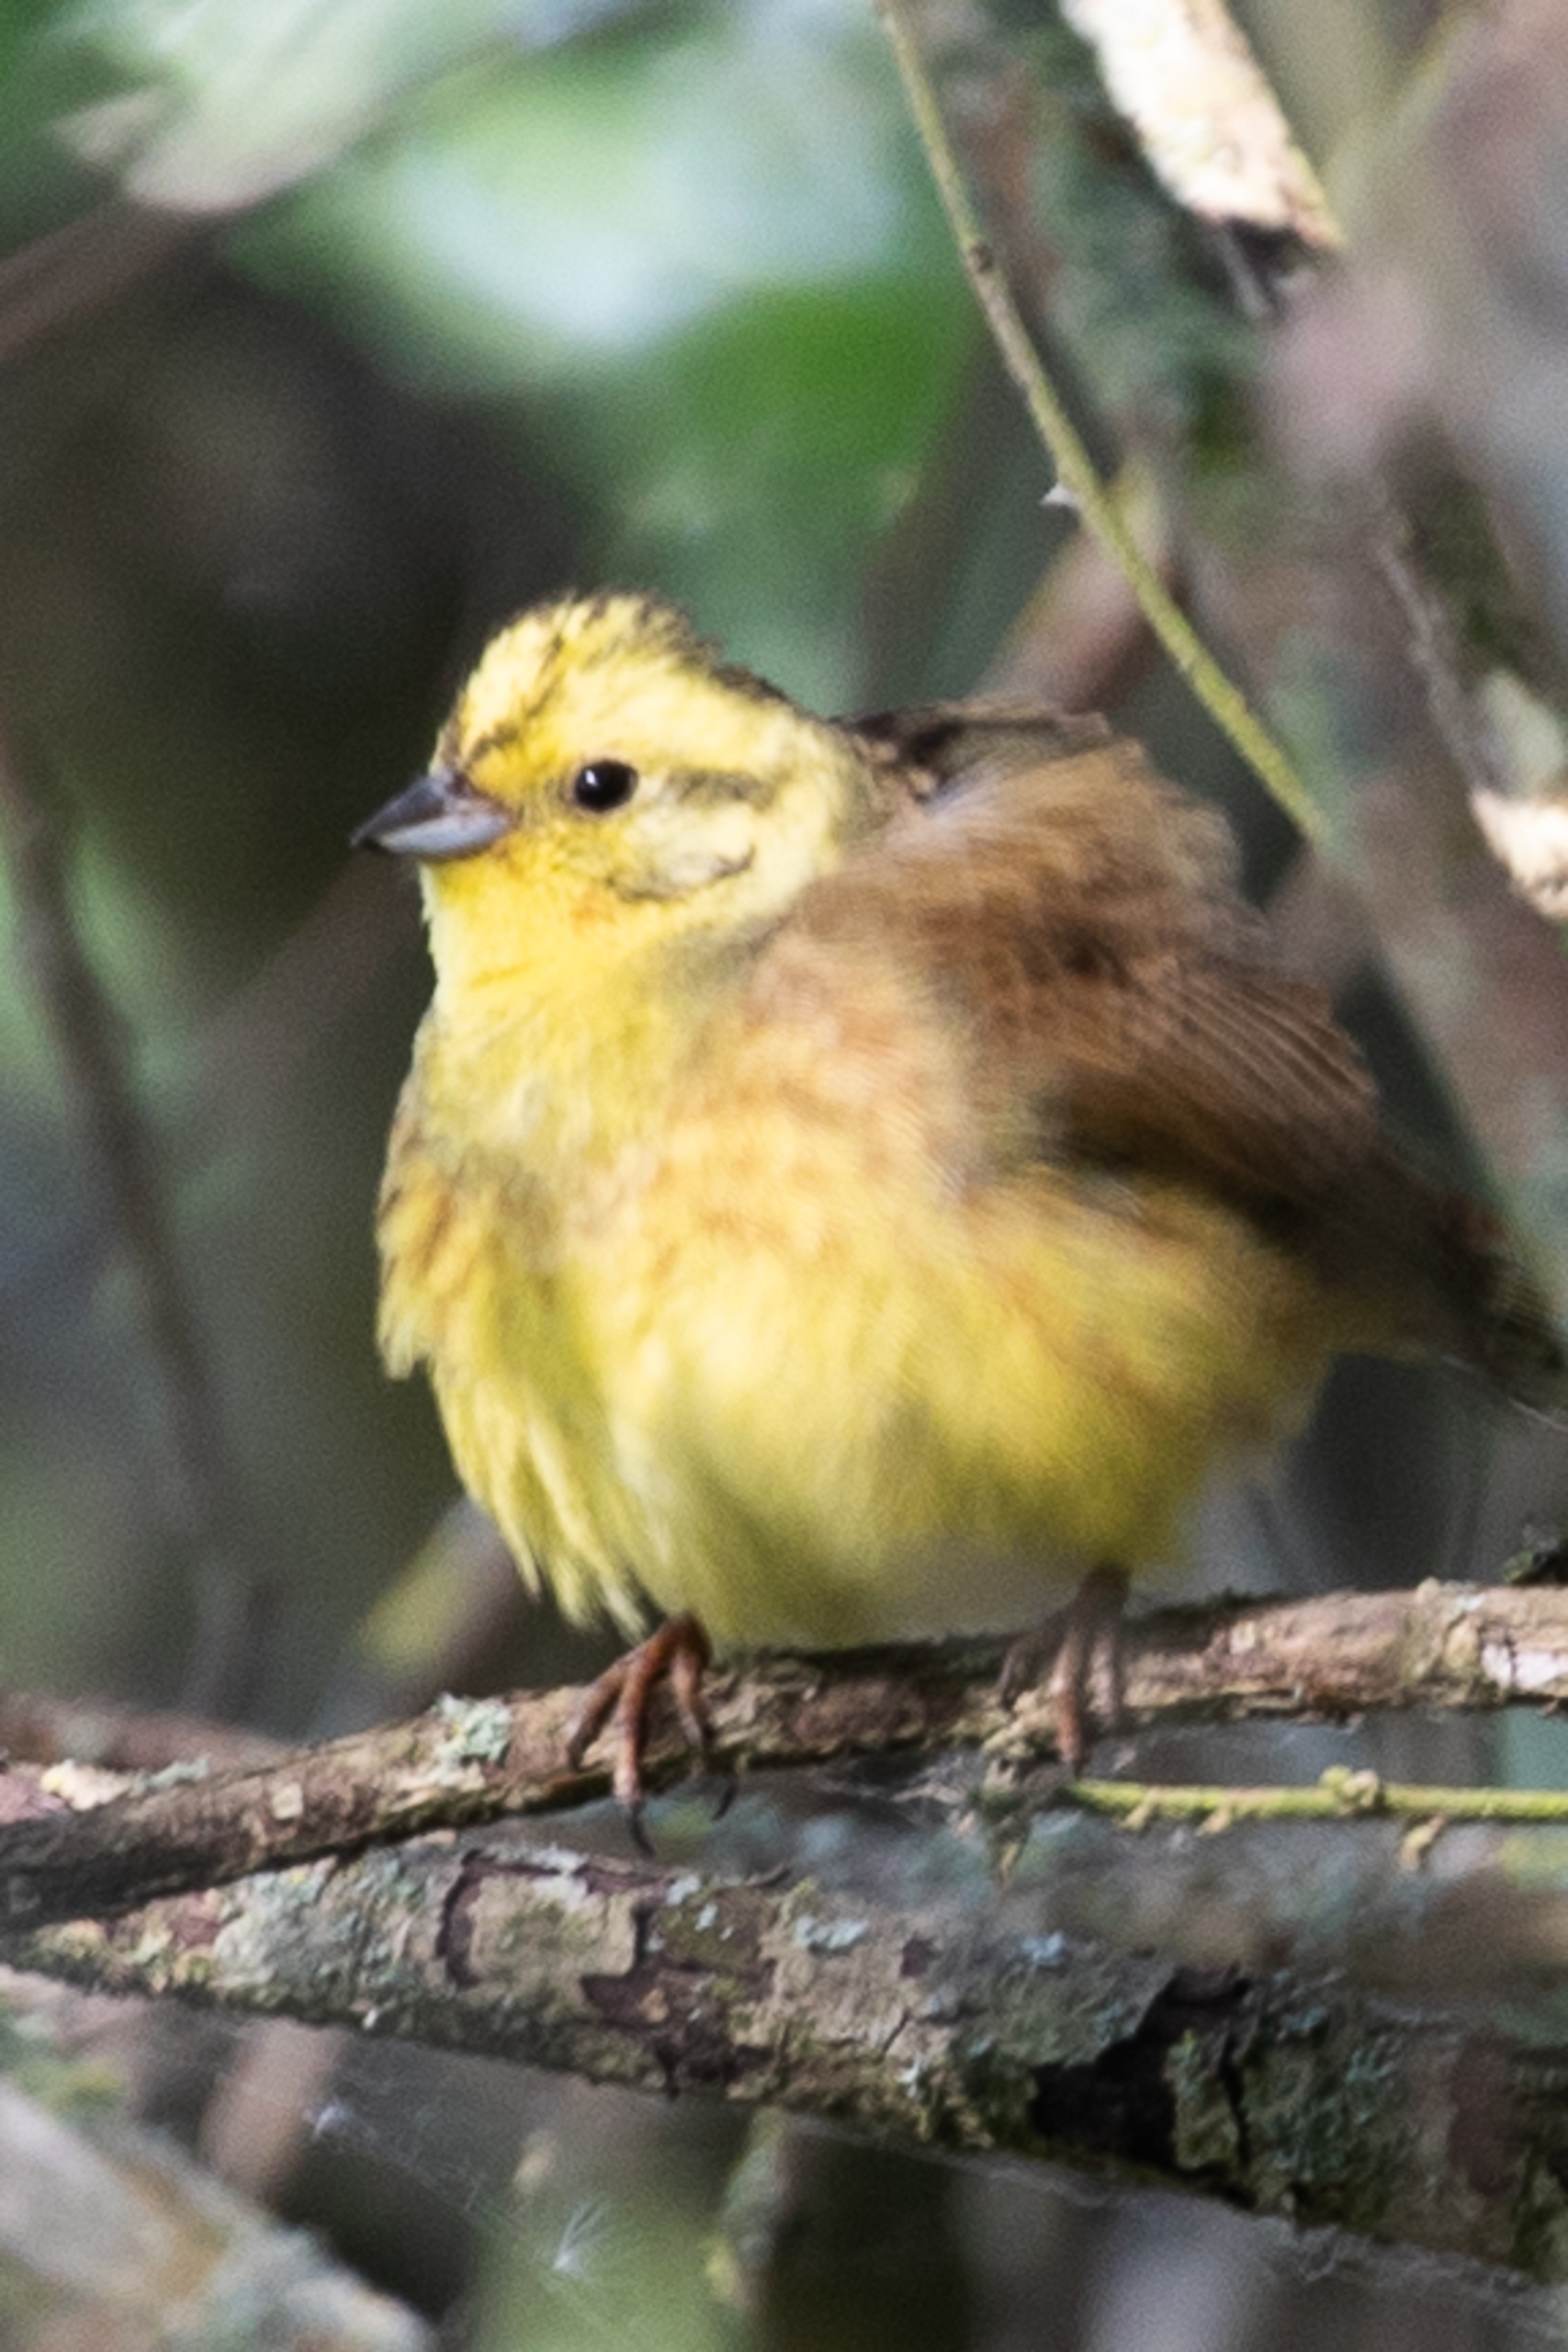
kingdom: Animalia
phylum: Chordata
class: Aves
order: Passeriformes
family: Emberizidae
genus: Emberiza
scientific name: Emberiza citrinella
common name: Gulspurv
